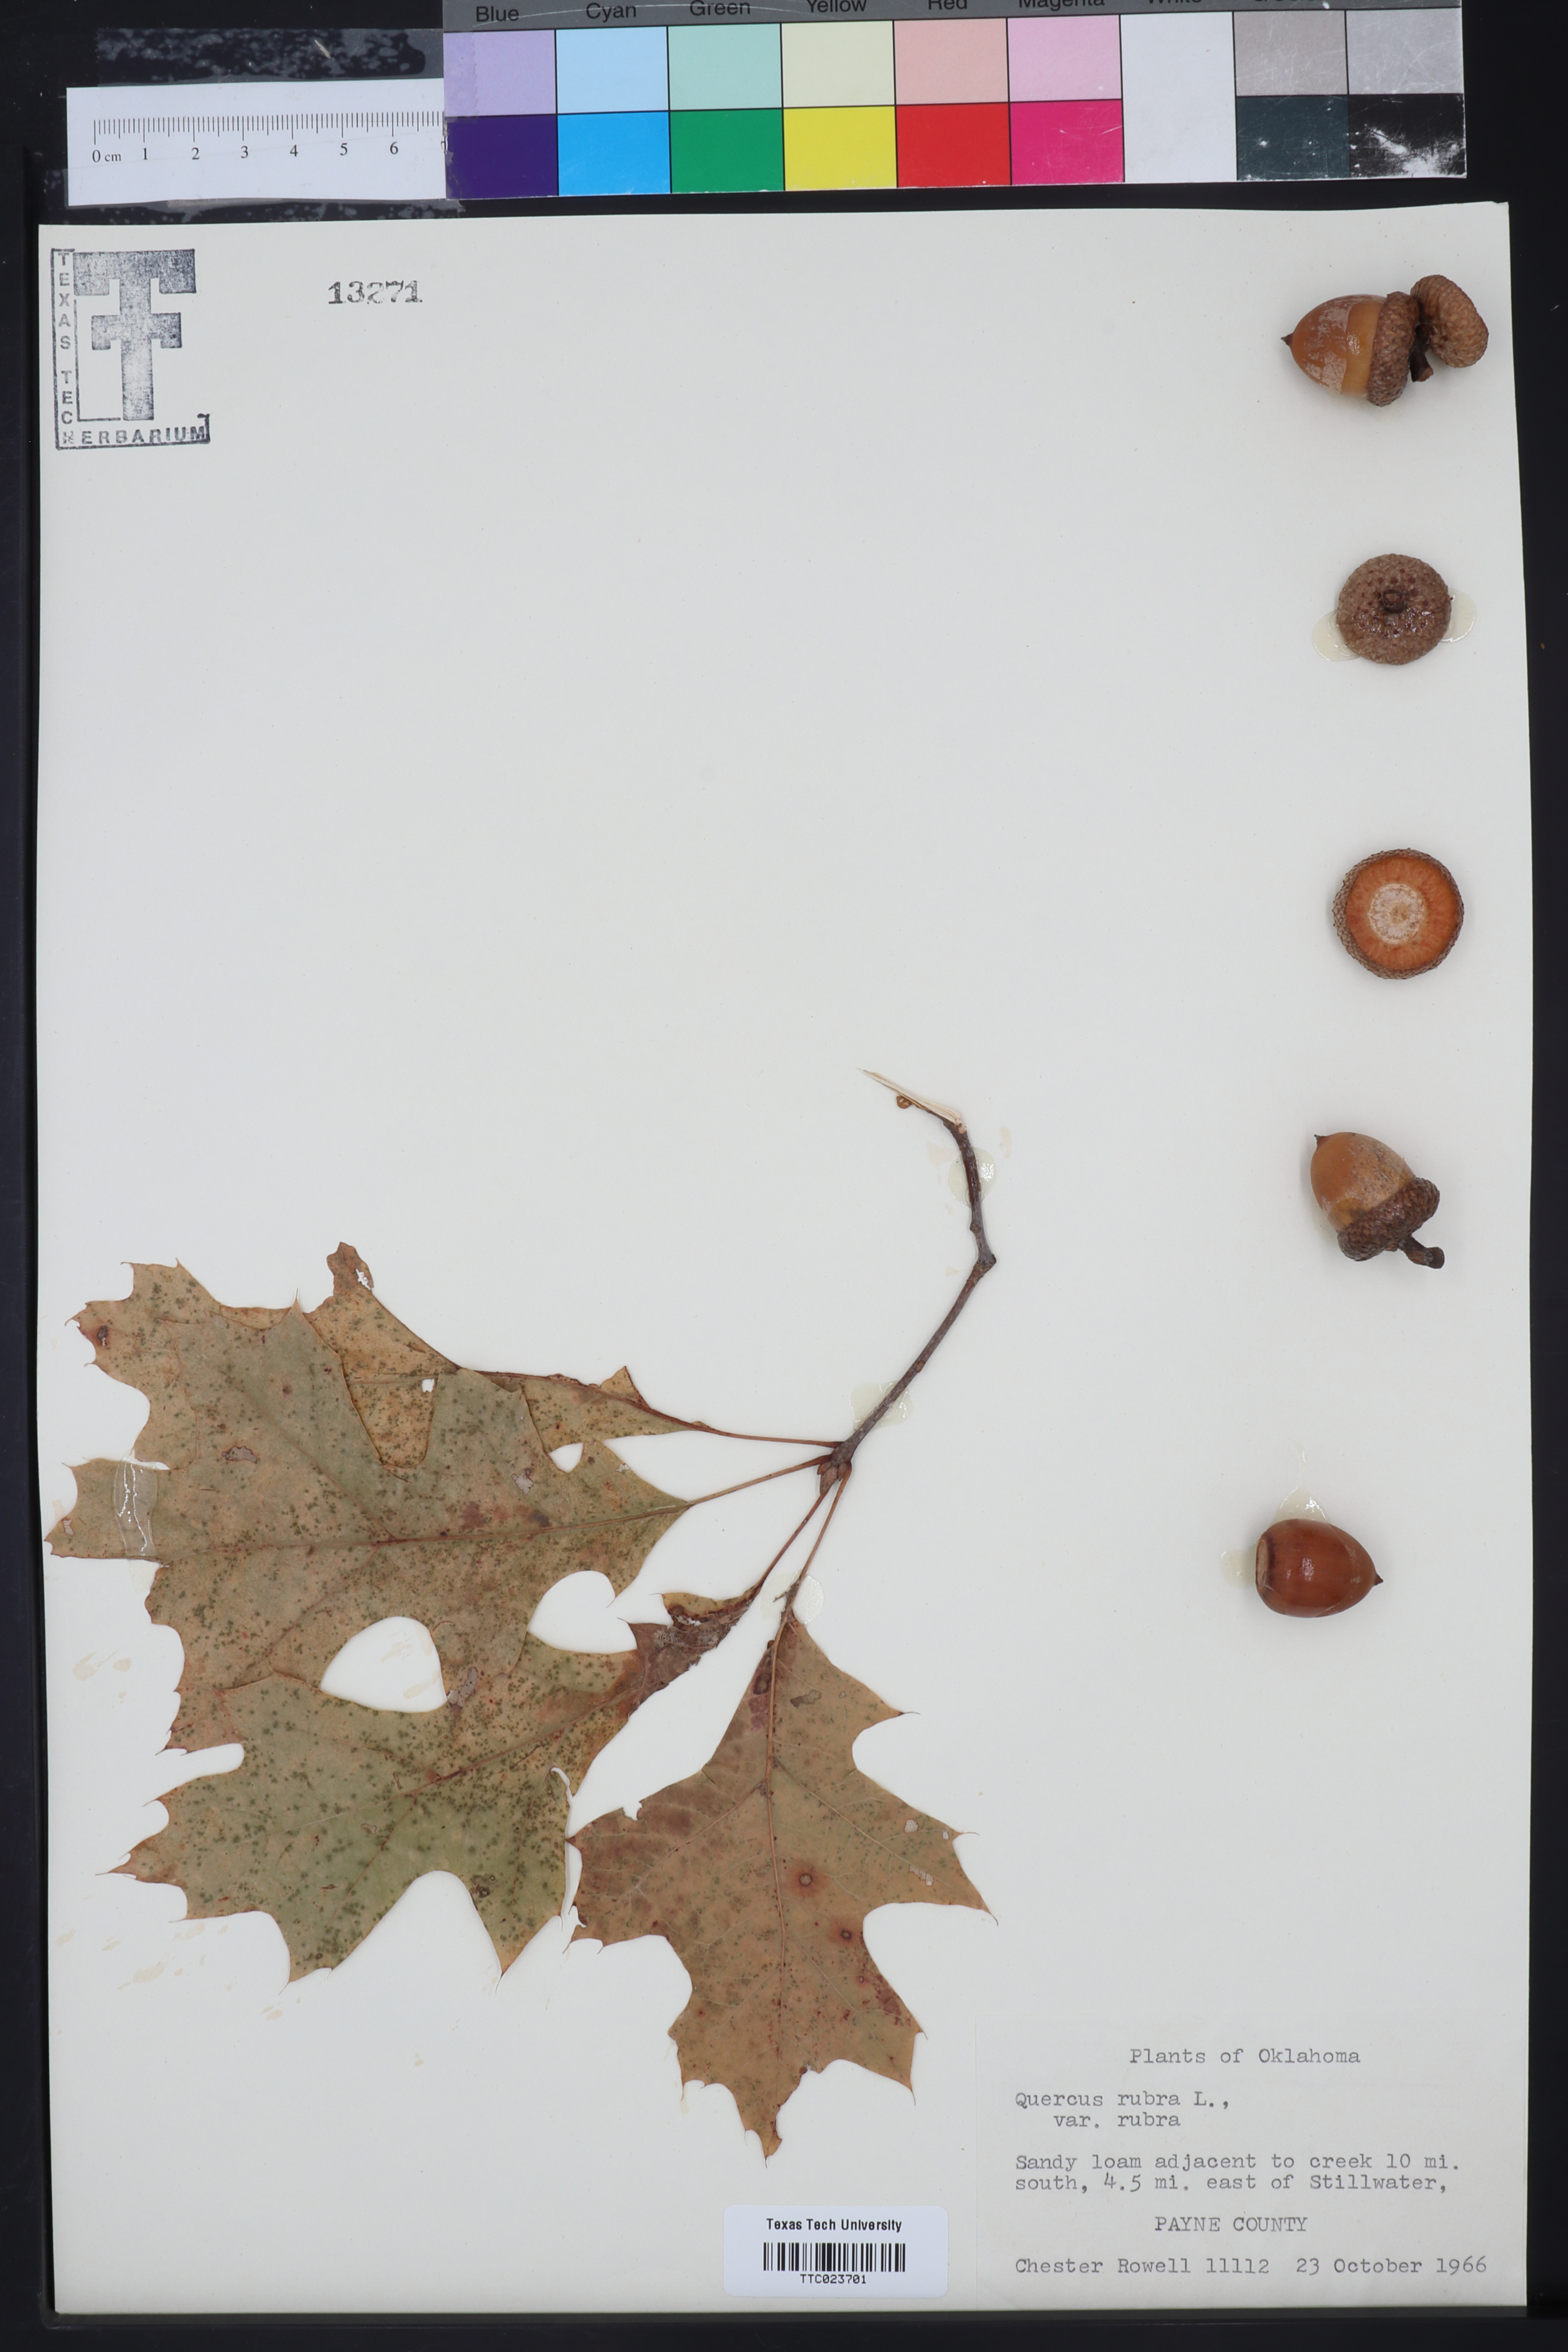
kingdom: Plantae
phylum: Tracheophyta
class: Magnoliopsida
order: Fagales
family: Fagaceae
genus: Quercus
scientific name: Quercus rubra
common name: Red oak
